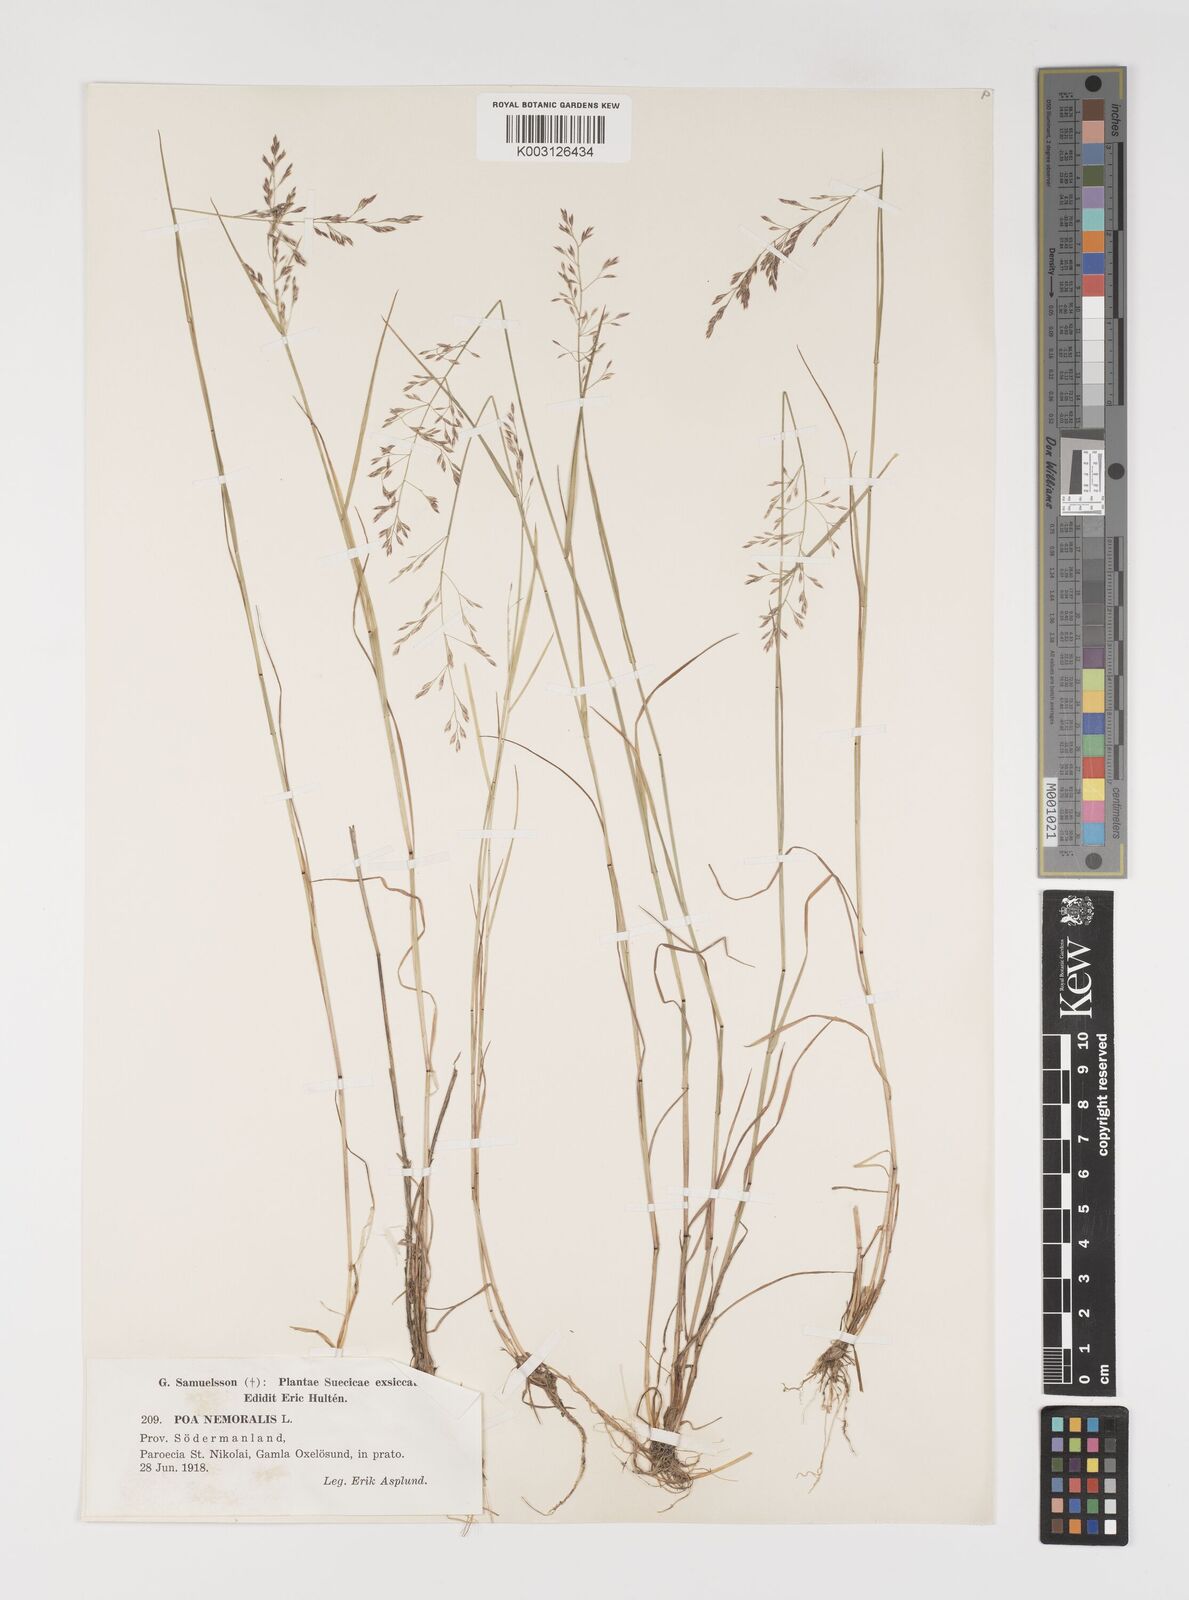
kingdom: Plantae
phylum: Tracheophyta
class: Liliopsida
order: Poales
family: Poaceae
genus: Poa
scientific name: Poa nemoralis
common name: Wood bluegrass
